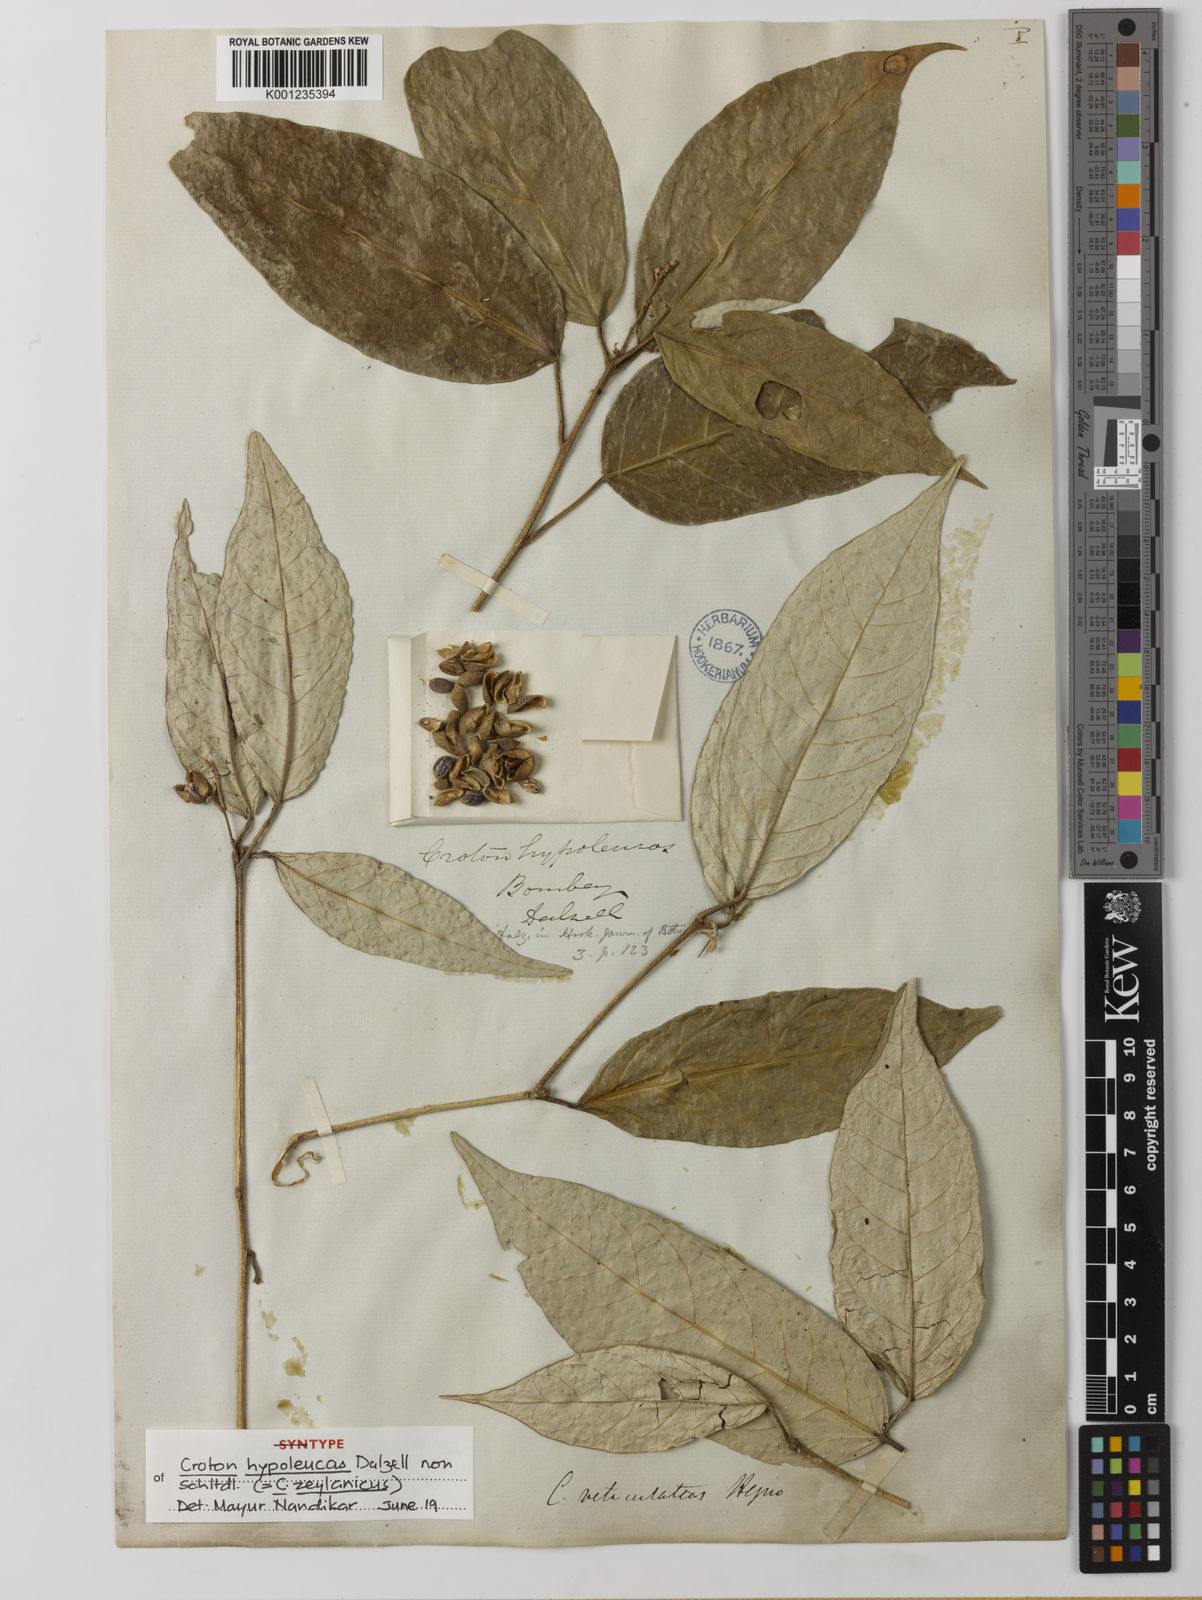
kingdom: Plantae
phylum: Tracheophyta
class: Magnoliopsida
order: Malpighiales
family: Euphorbiaceae
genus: Croton
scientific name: Croton
